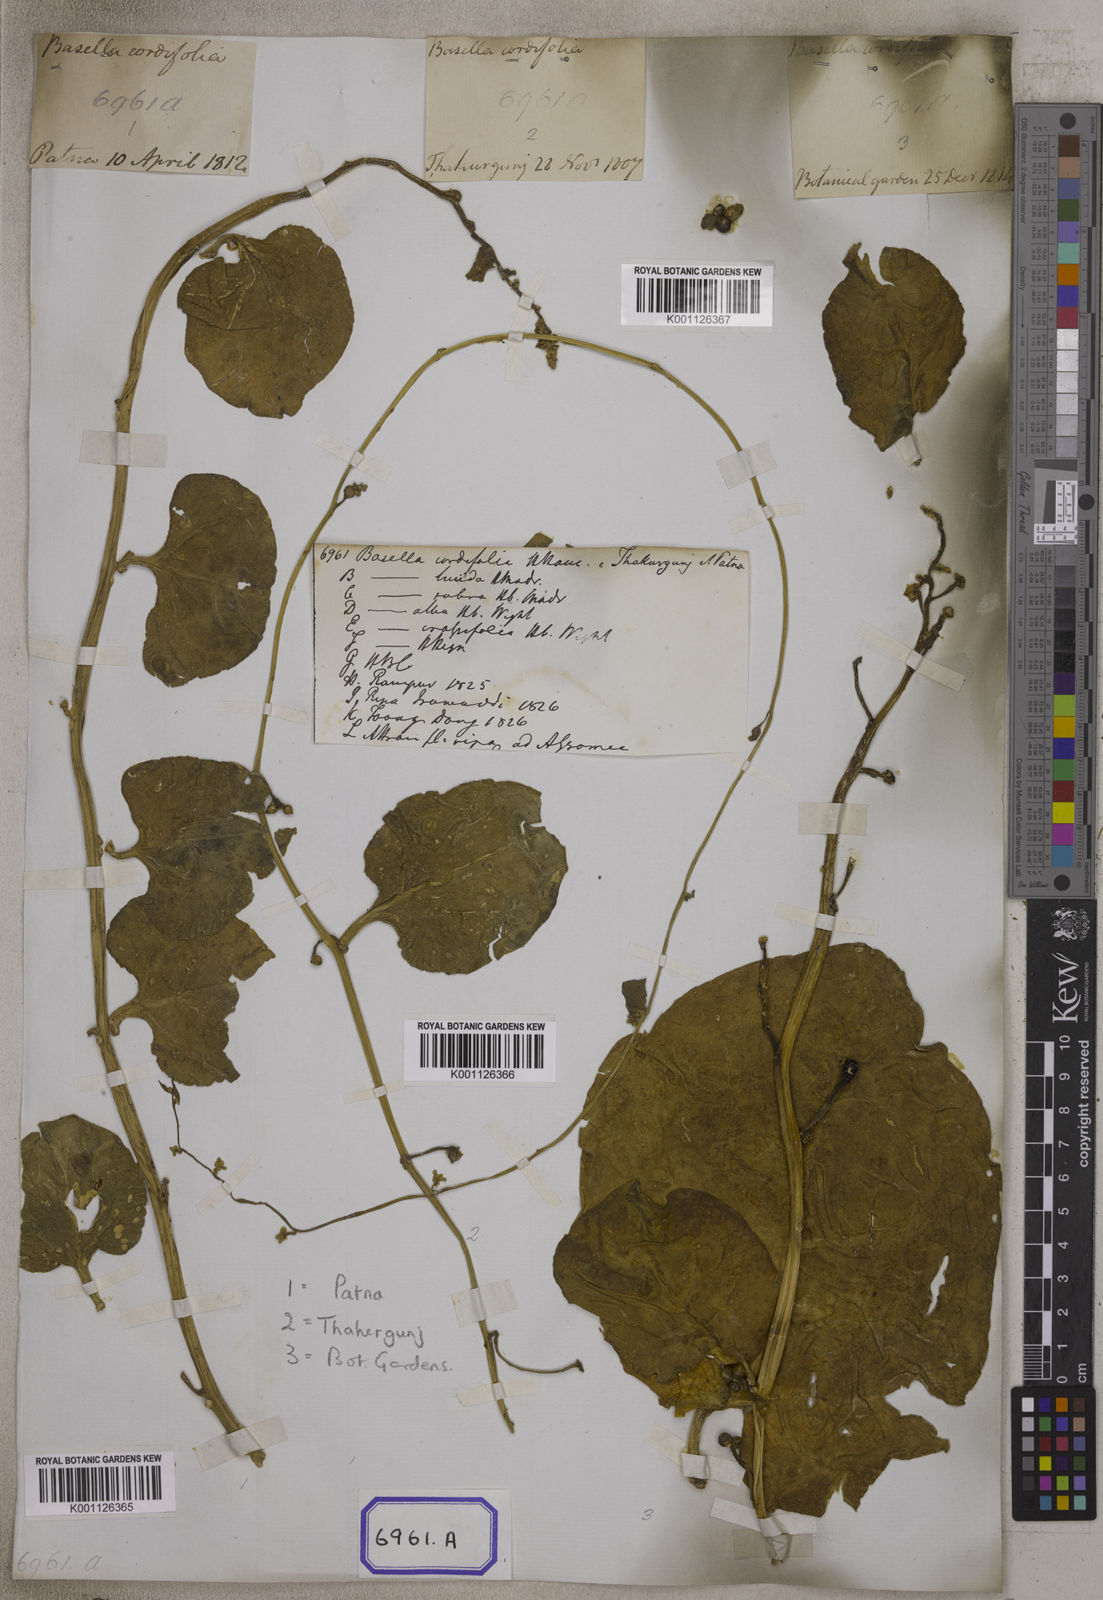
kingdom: Plantae
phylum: Tracheophyta
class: Magnoliopsida
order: Caryophyllales
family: Basellaceae
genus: Basella
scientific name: Basella alba
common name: Indian spinach
